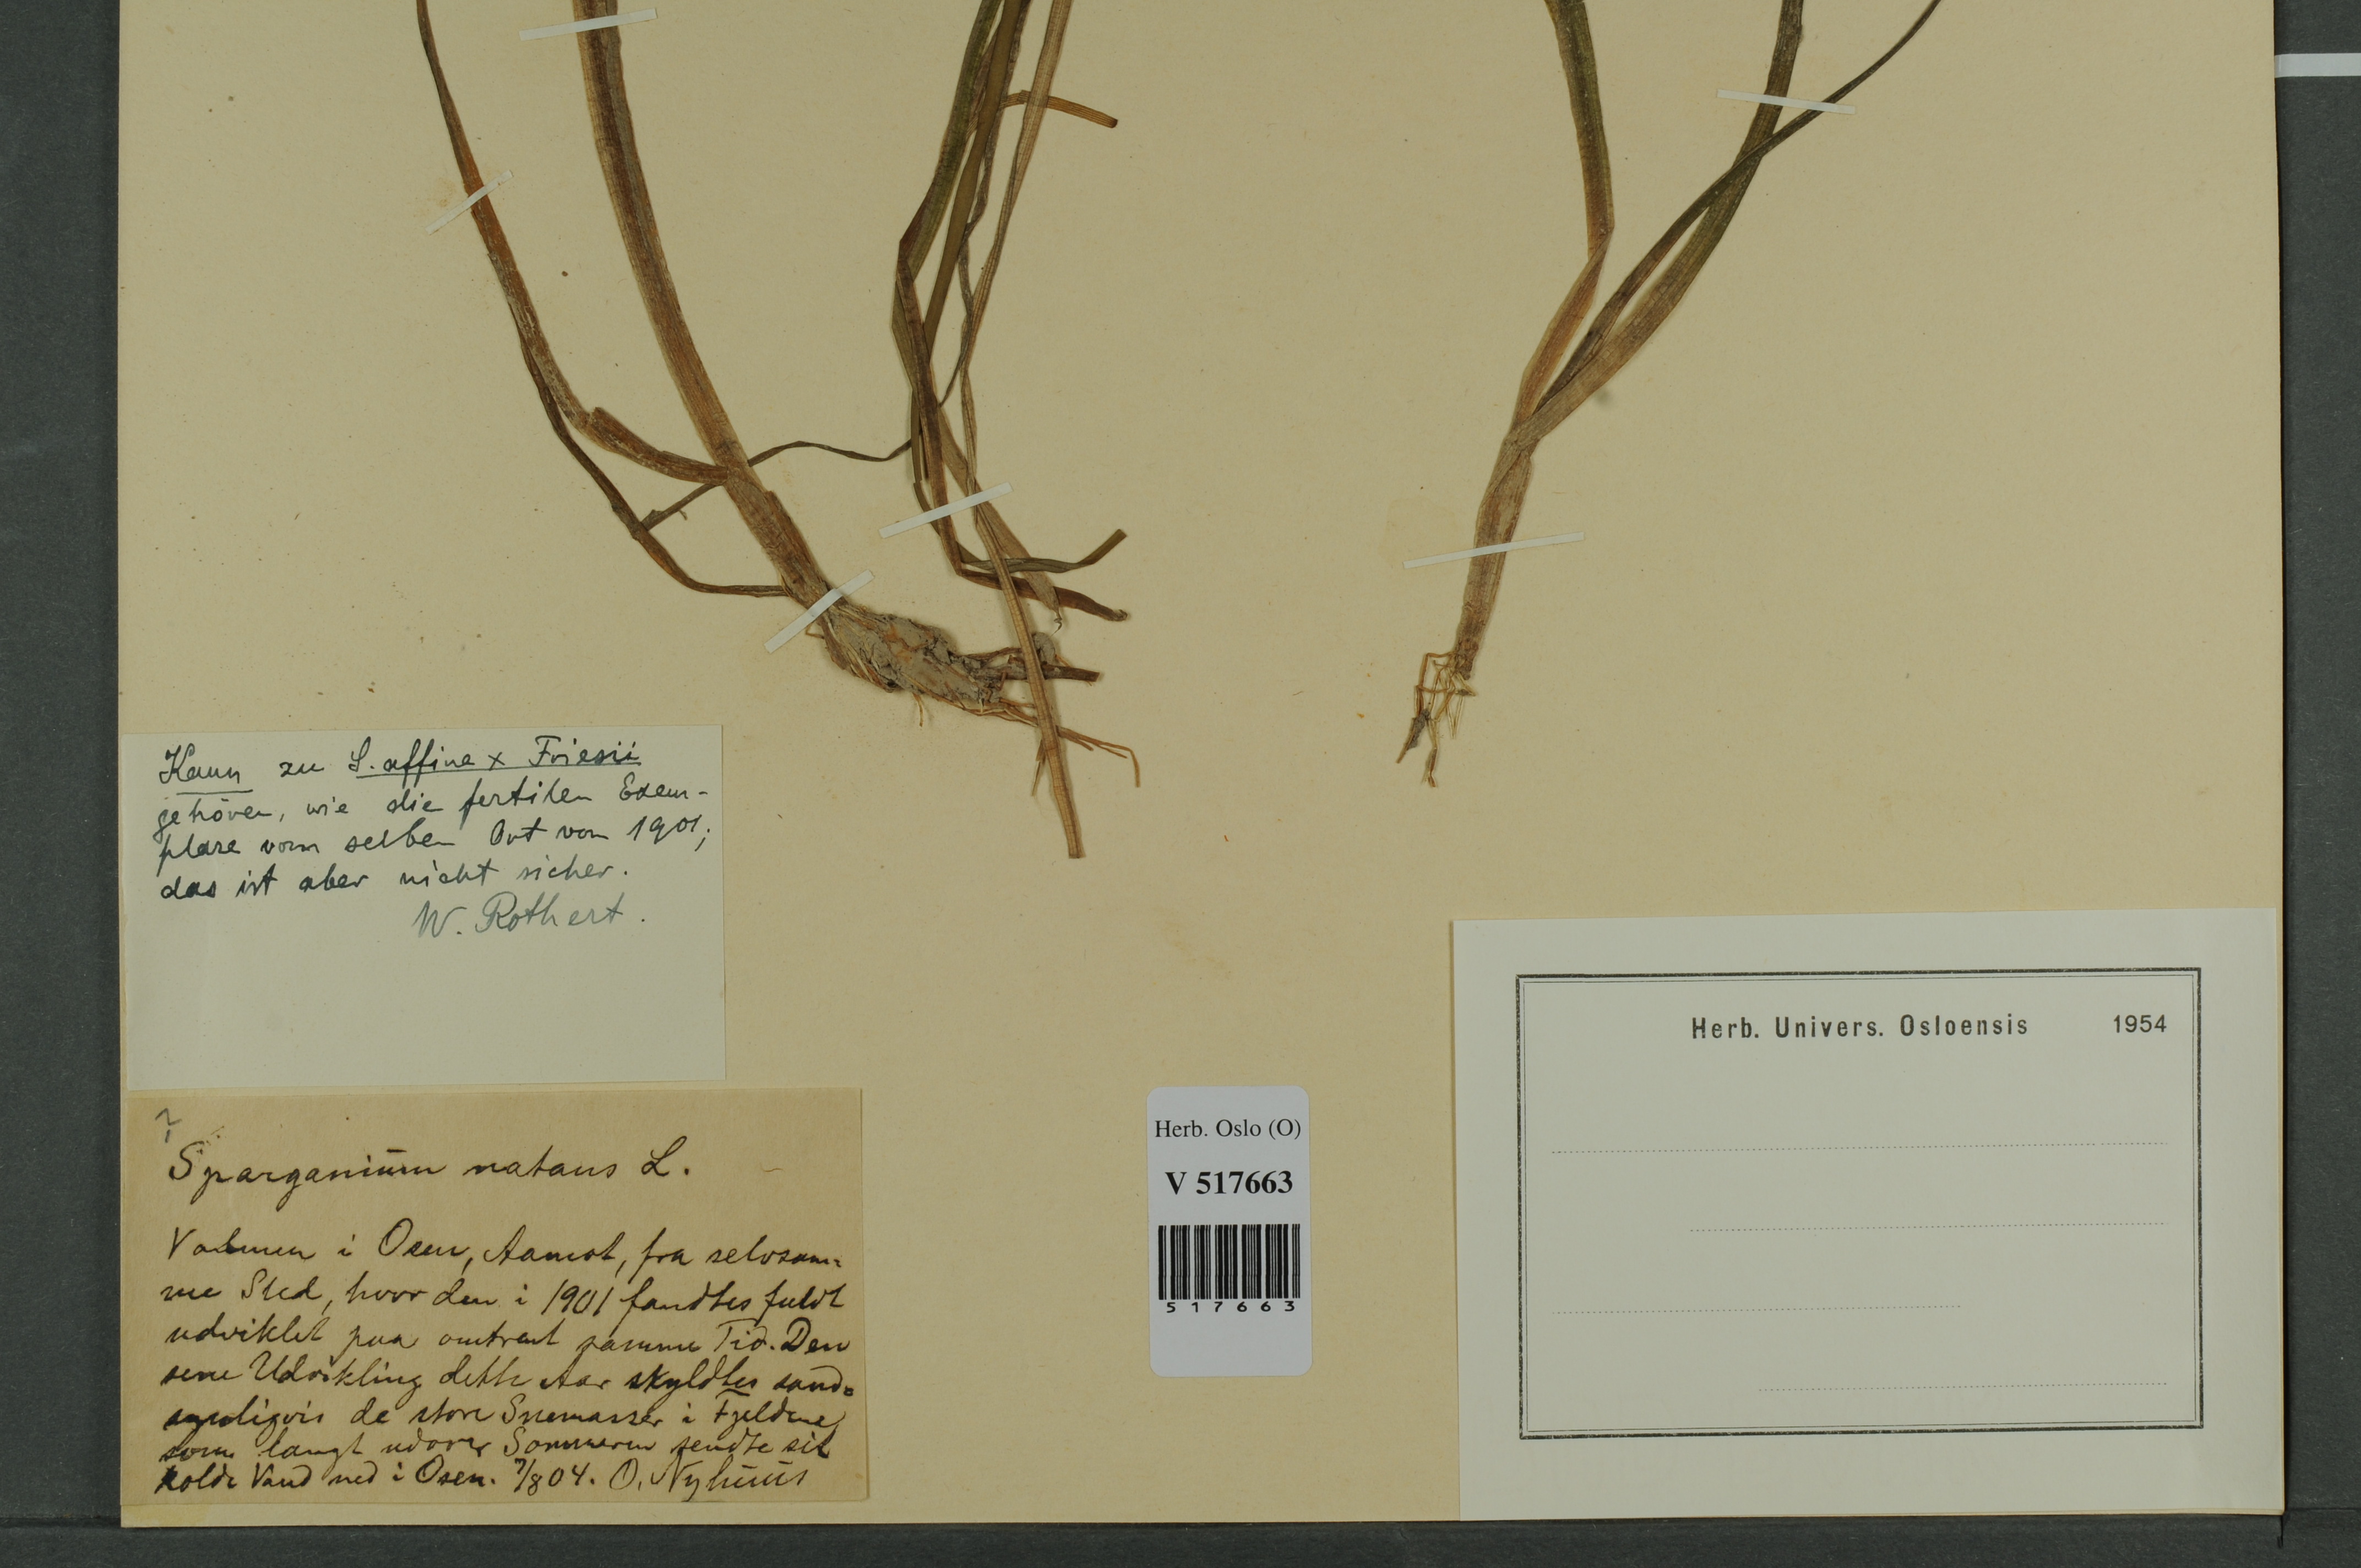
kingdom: Plantae
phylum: Tracheophyta
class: Liliopsida
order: Poales
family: Typhaceae
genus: Sparganium
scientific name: Sparganium
